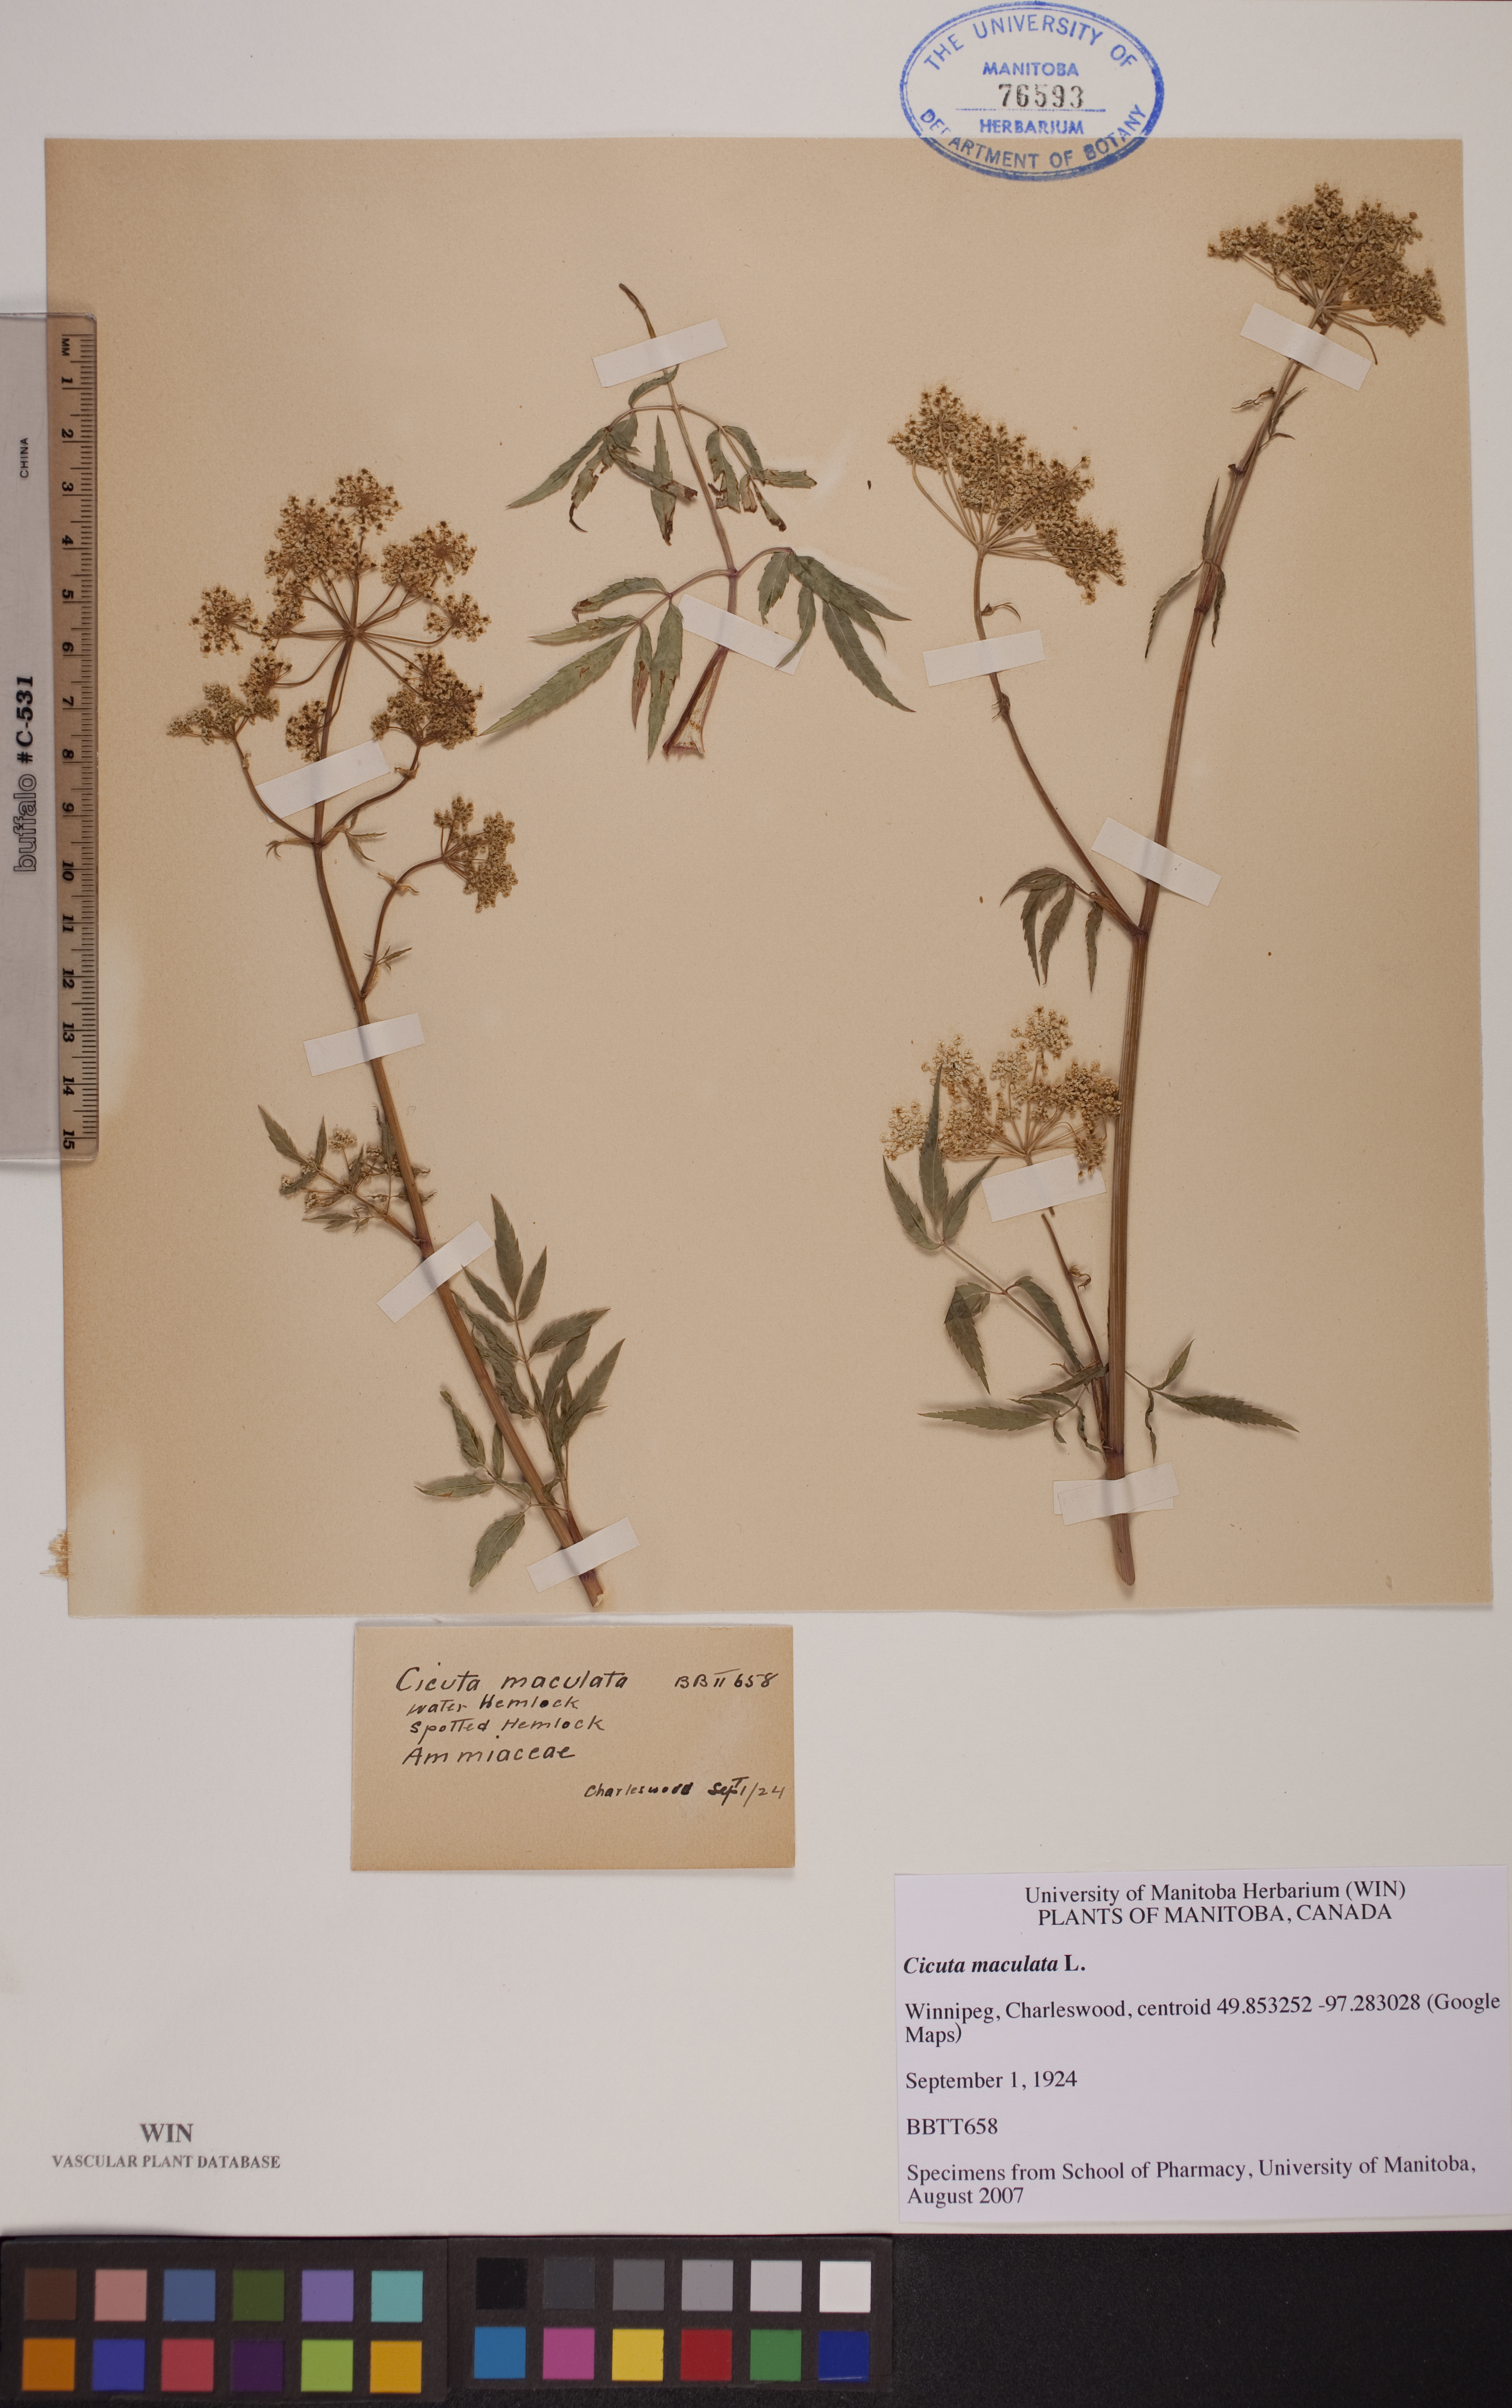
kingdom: Plantae
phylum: Tracheophyta
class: Magnoliopsida
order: Apiales
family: Apiaceae
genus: Cicuta
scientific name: Cicuta maculata
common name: Spotted cowbane
